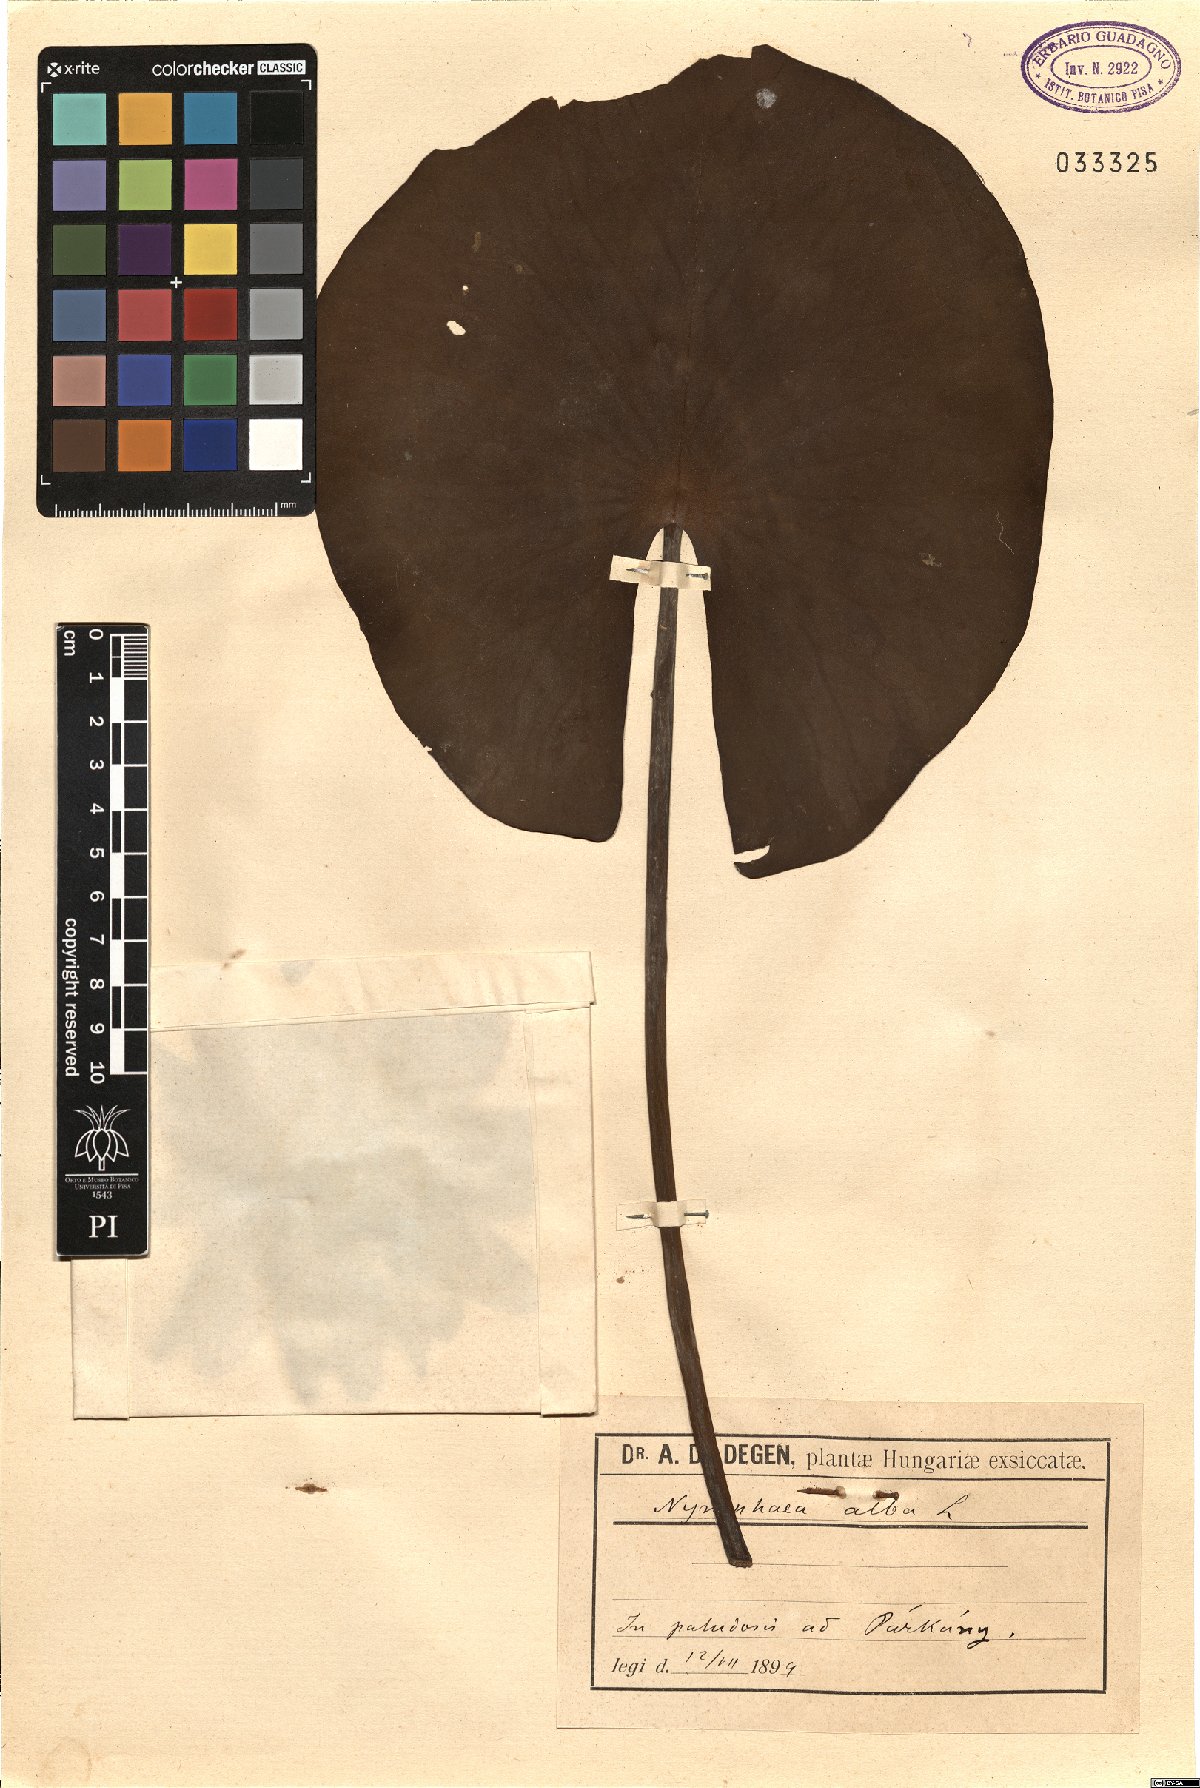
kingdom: Plantae
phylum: Tracheophyta
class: Magnoliopsida
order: Nymphaeales
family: Nymphaeaceae
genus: Nymphaea
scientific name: Nymphaea alba
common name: White water-lily
